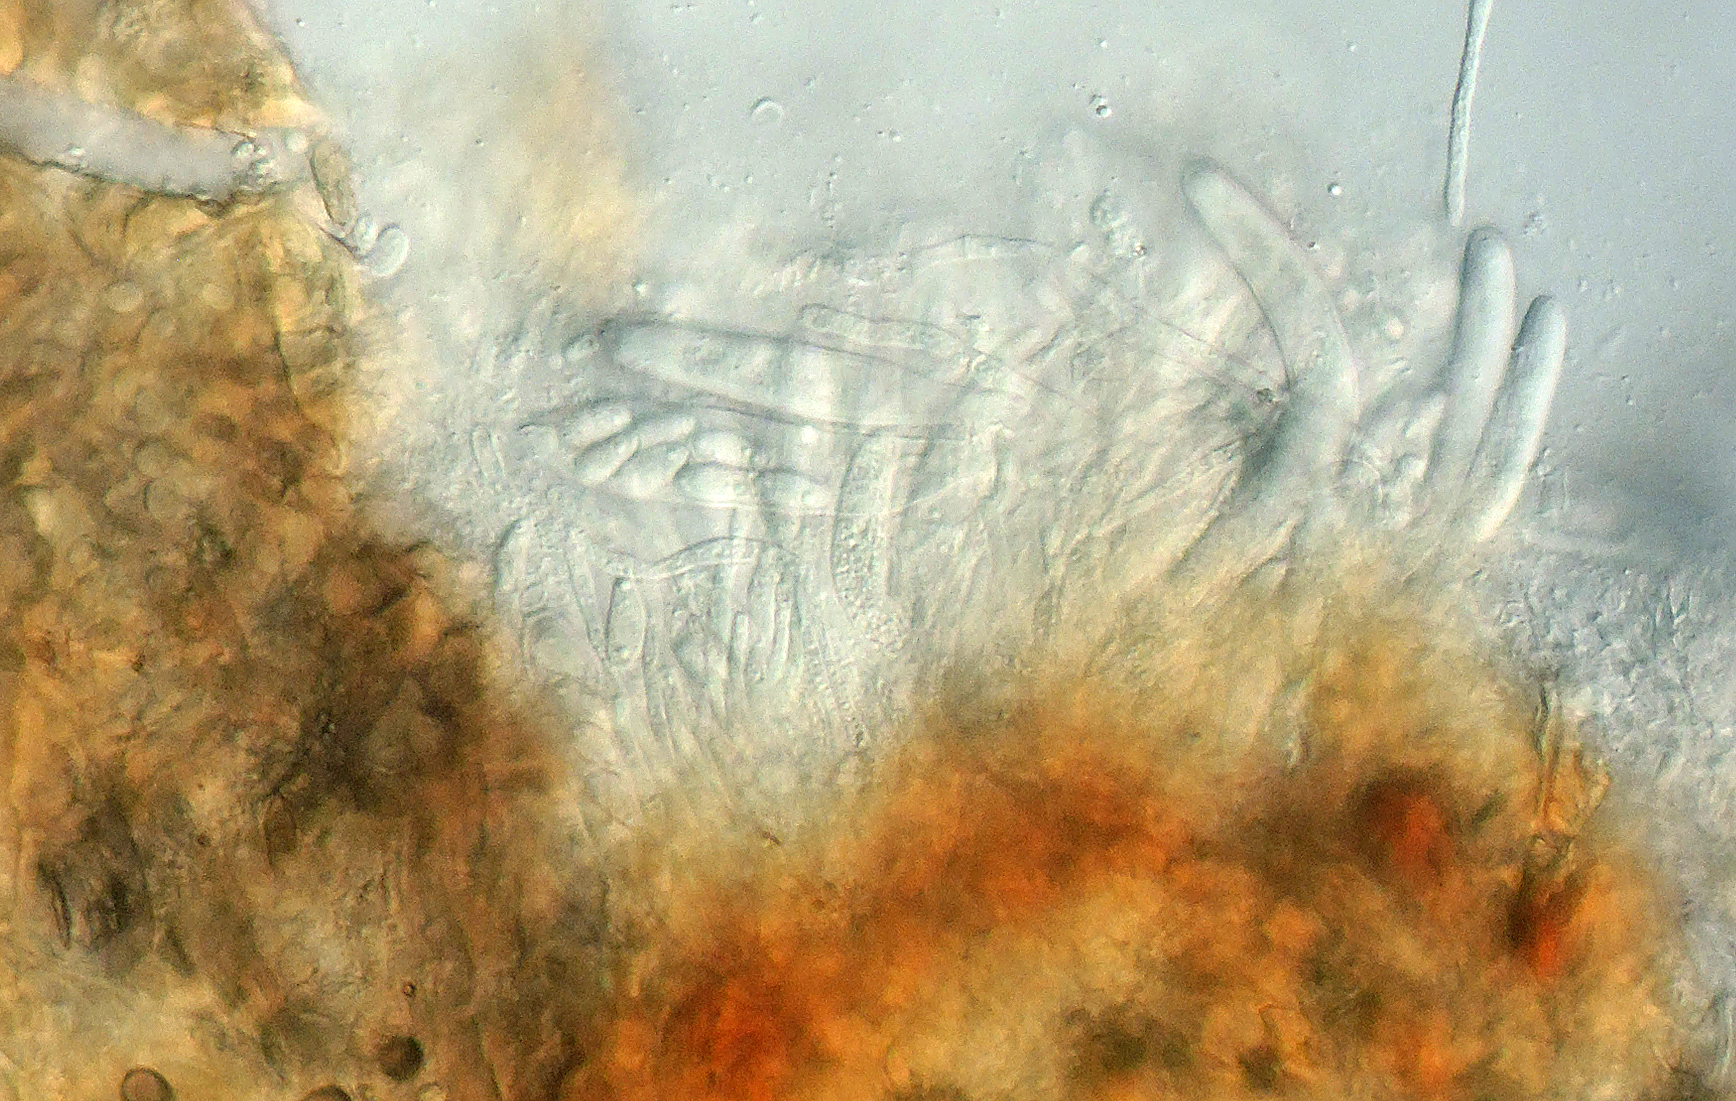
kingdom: Fungi
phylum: Ascomycota
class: Leotiomycetes
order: Helotiales
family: Drepanopezizaceae
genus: Pseudopeziza
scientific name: Pseudopeziza medicaginis
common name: sneglebælg-bladskive
